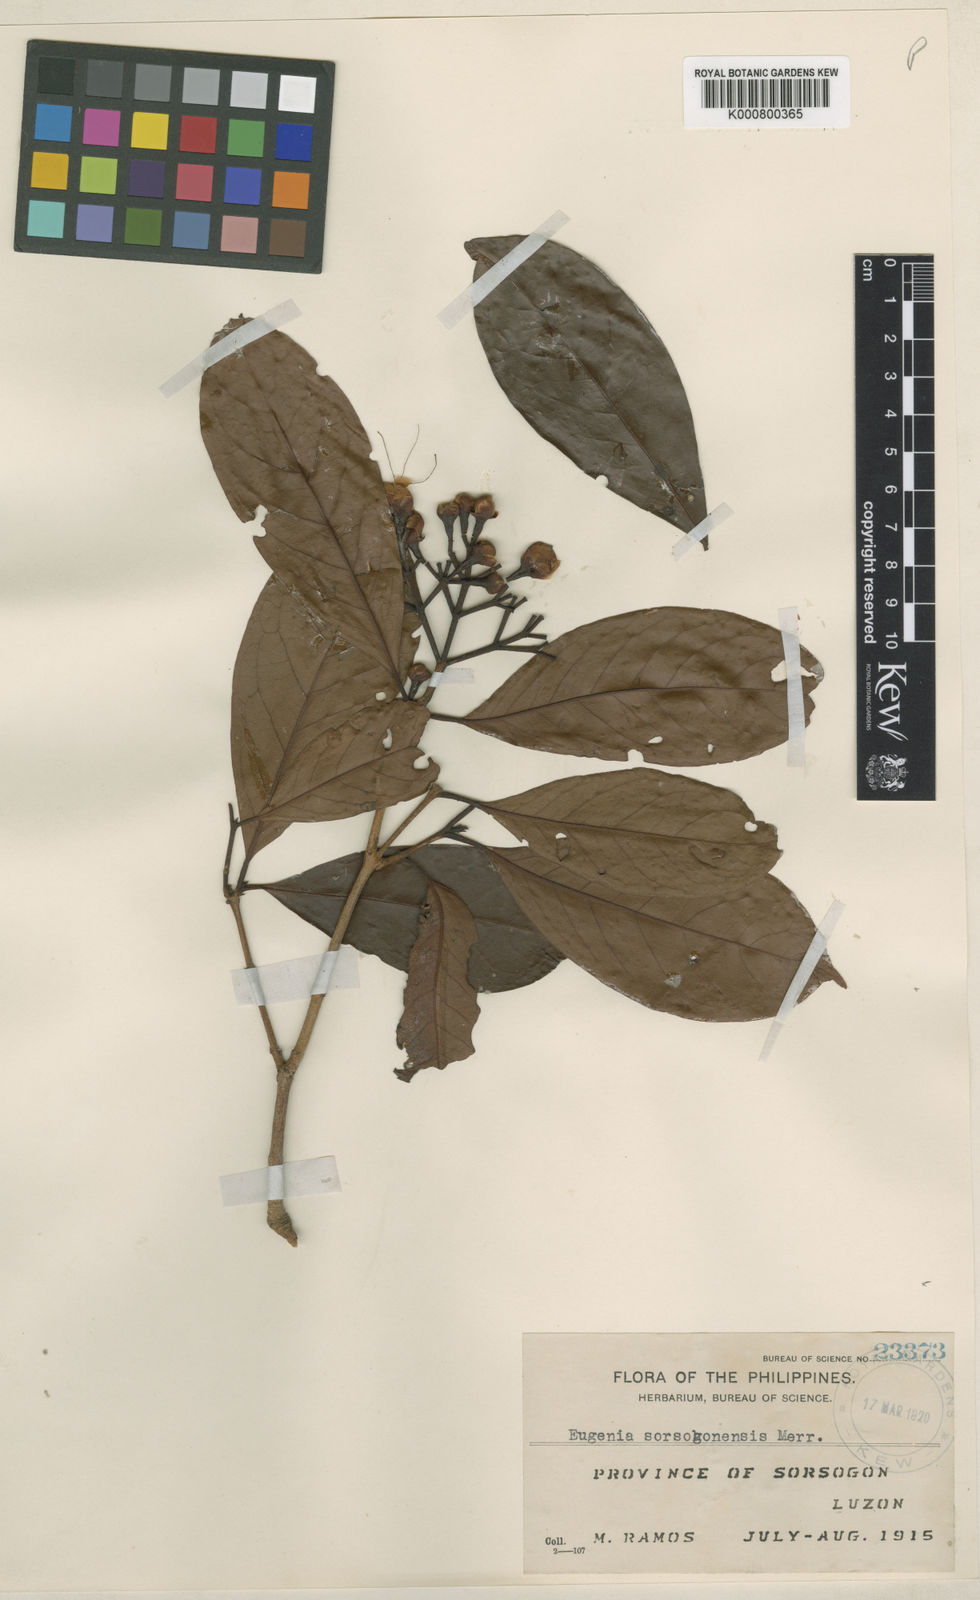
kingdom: Plantae
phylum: Tracheophyta
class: Magnoliopsida
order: Myrtales
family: Myrtaceae
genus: Syzygium
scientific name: Syzygium vidalianum
